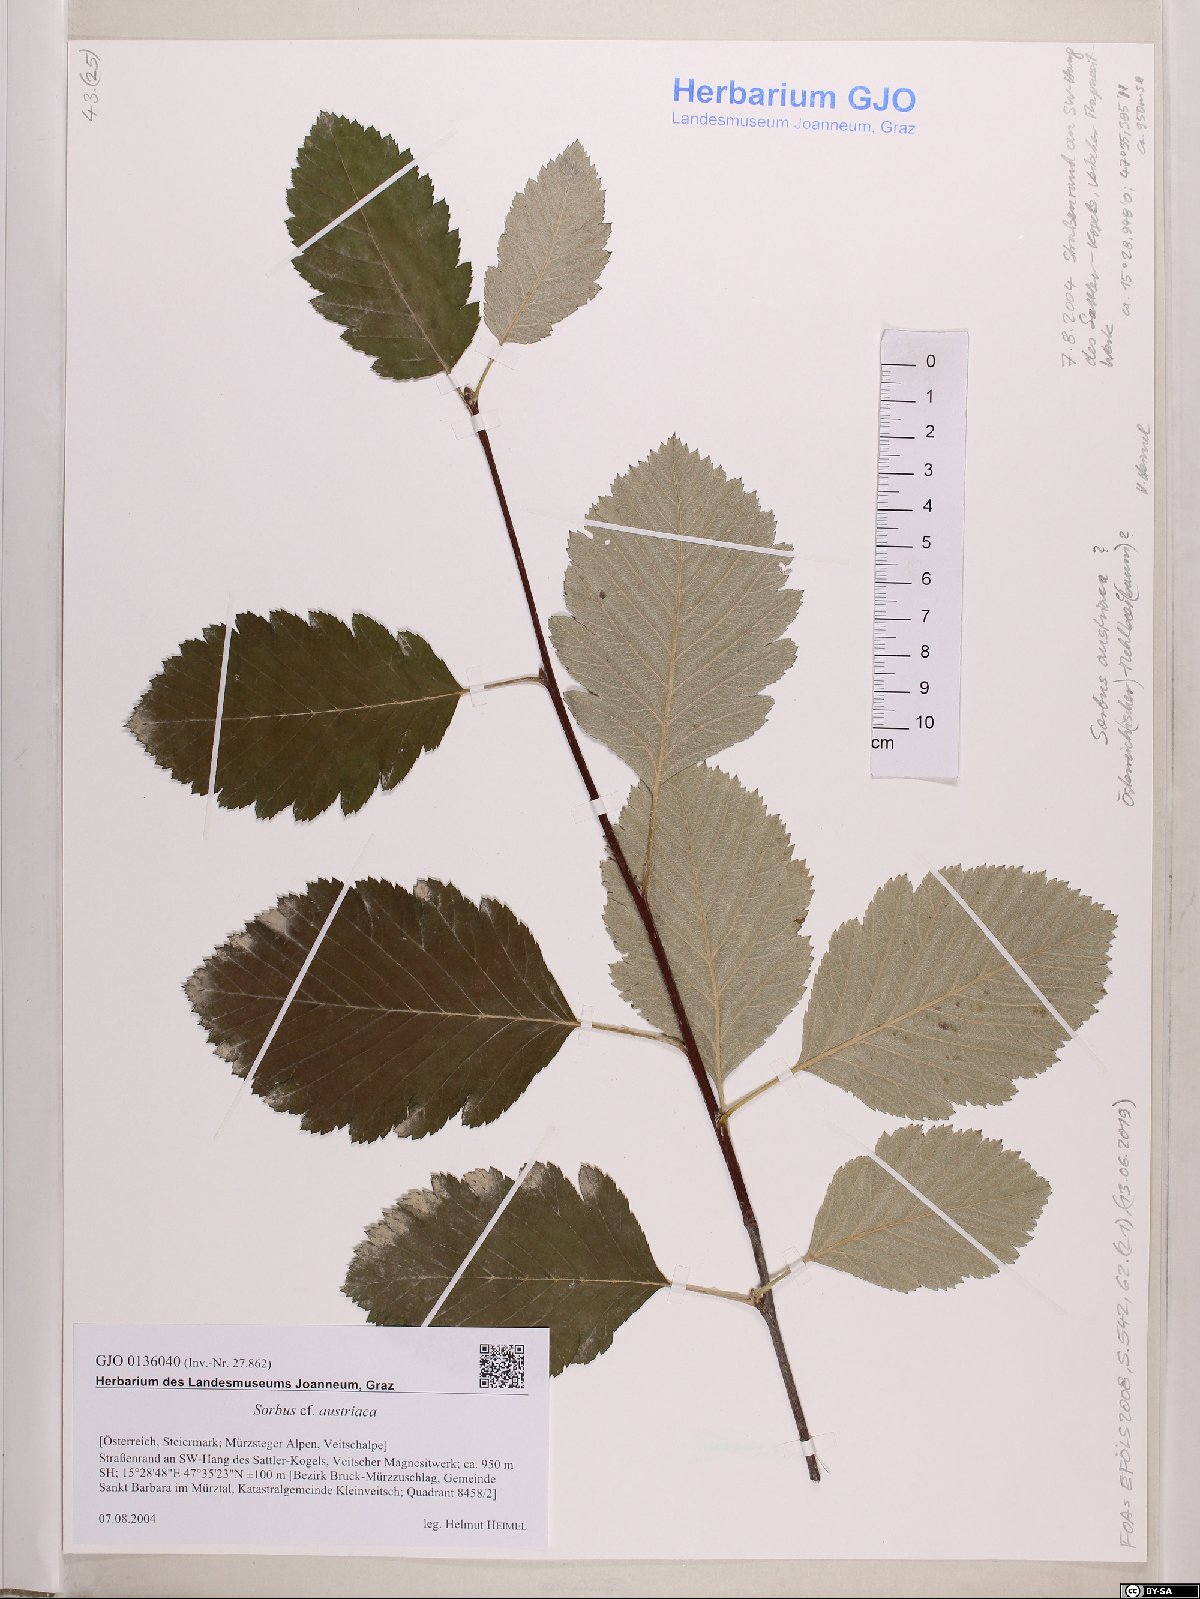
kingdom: Plantae
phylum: Tracheophyta
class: Magnoliopsida
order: Rosales
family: Rosaceae
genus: Hedlundia
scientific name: Hedlundia austriaca
